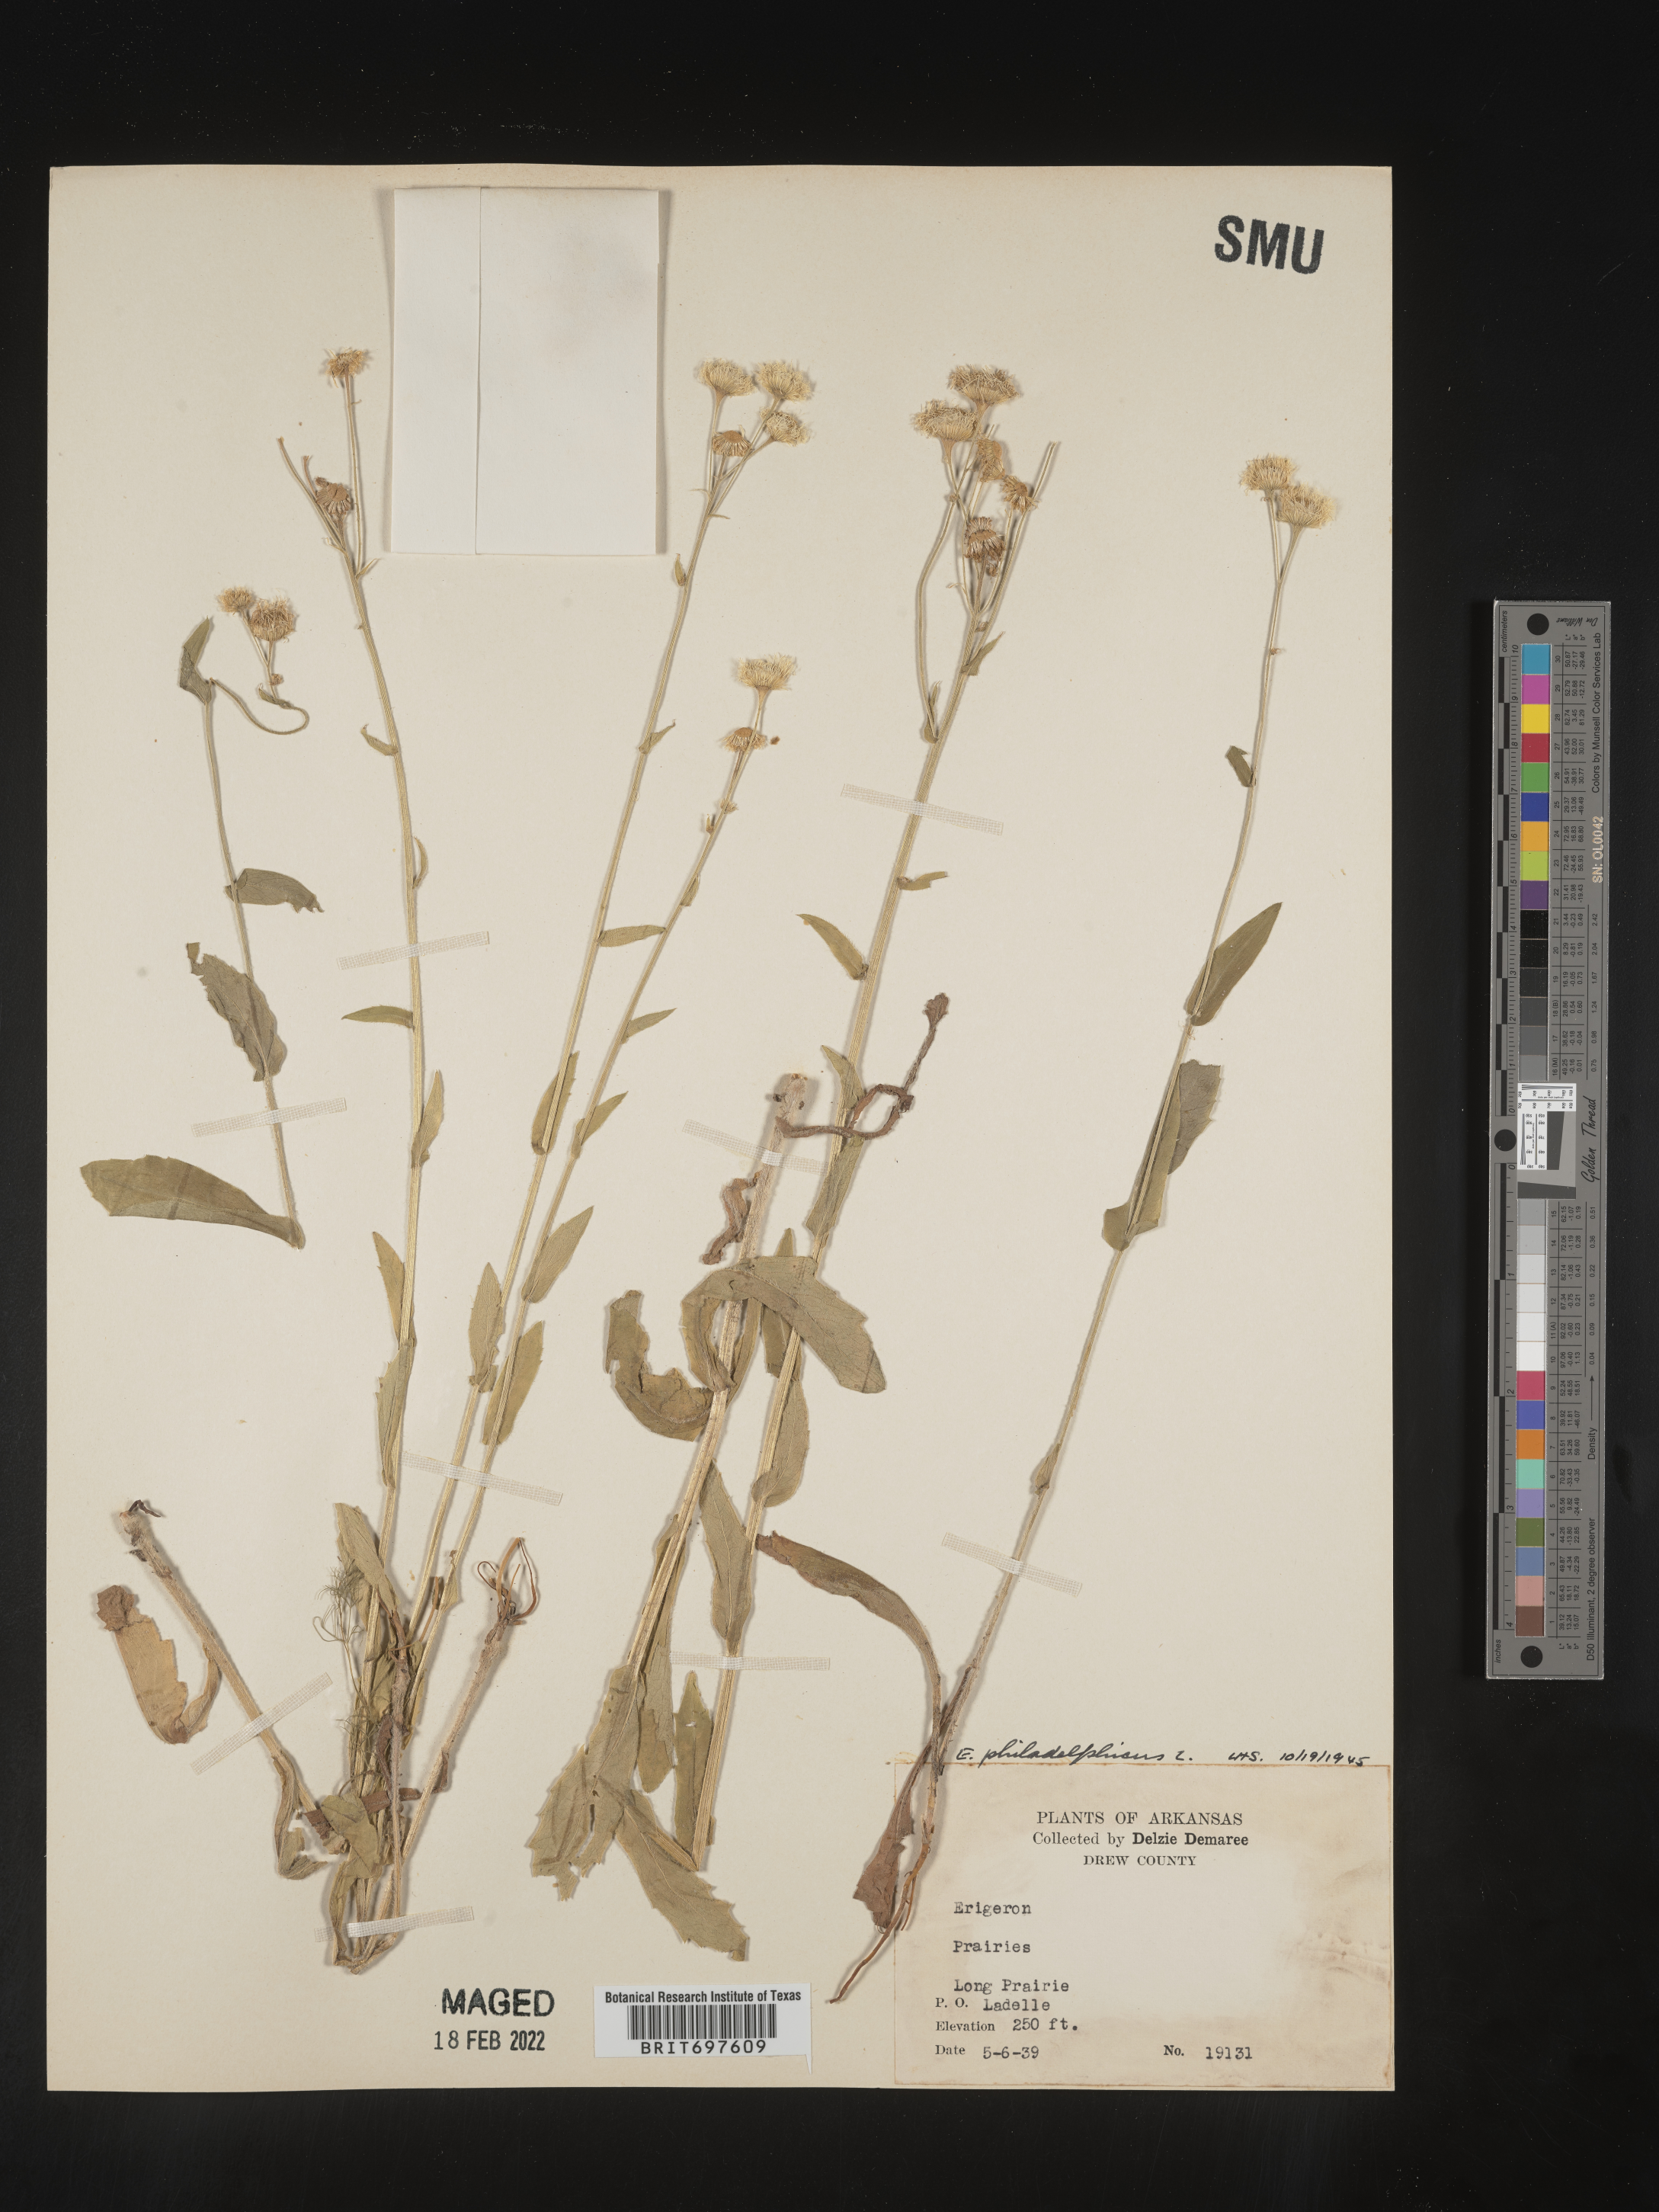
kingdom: Plantae
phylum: Tracheophyta
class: Magnoliopsida
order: Asterales
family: Asteraceae
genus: Erigeron
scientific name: Erigeron philadelphicus
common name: Robin's-plantain
